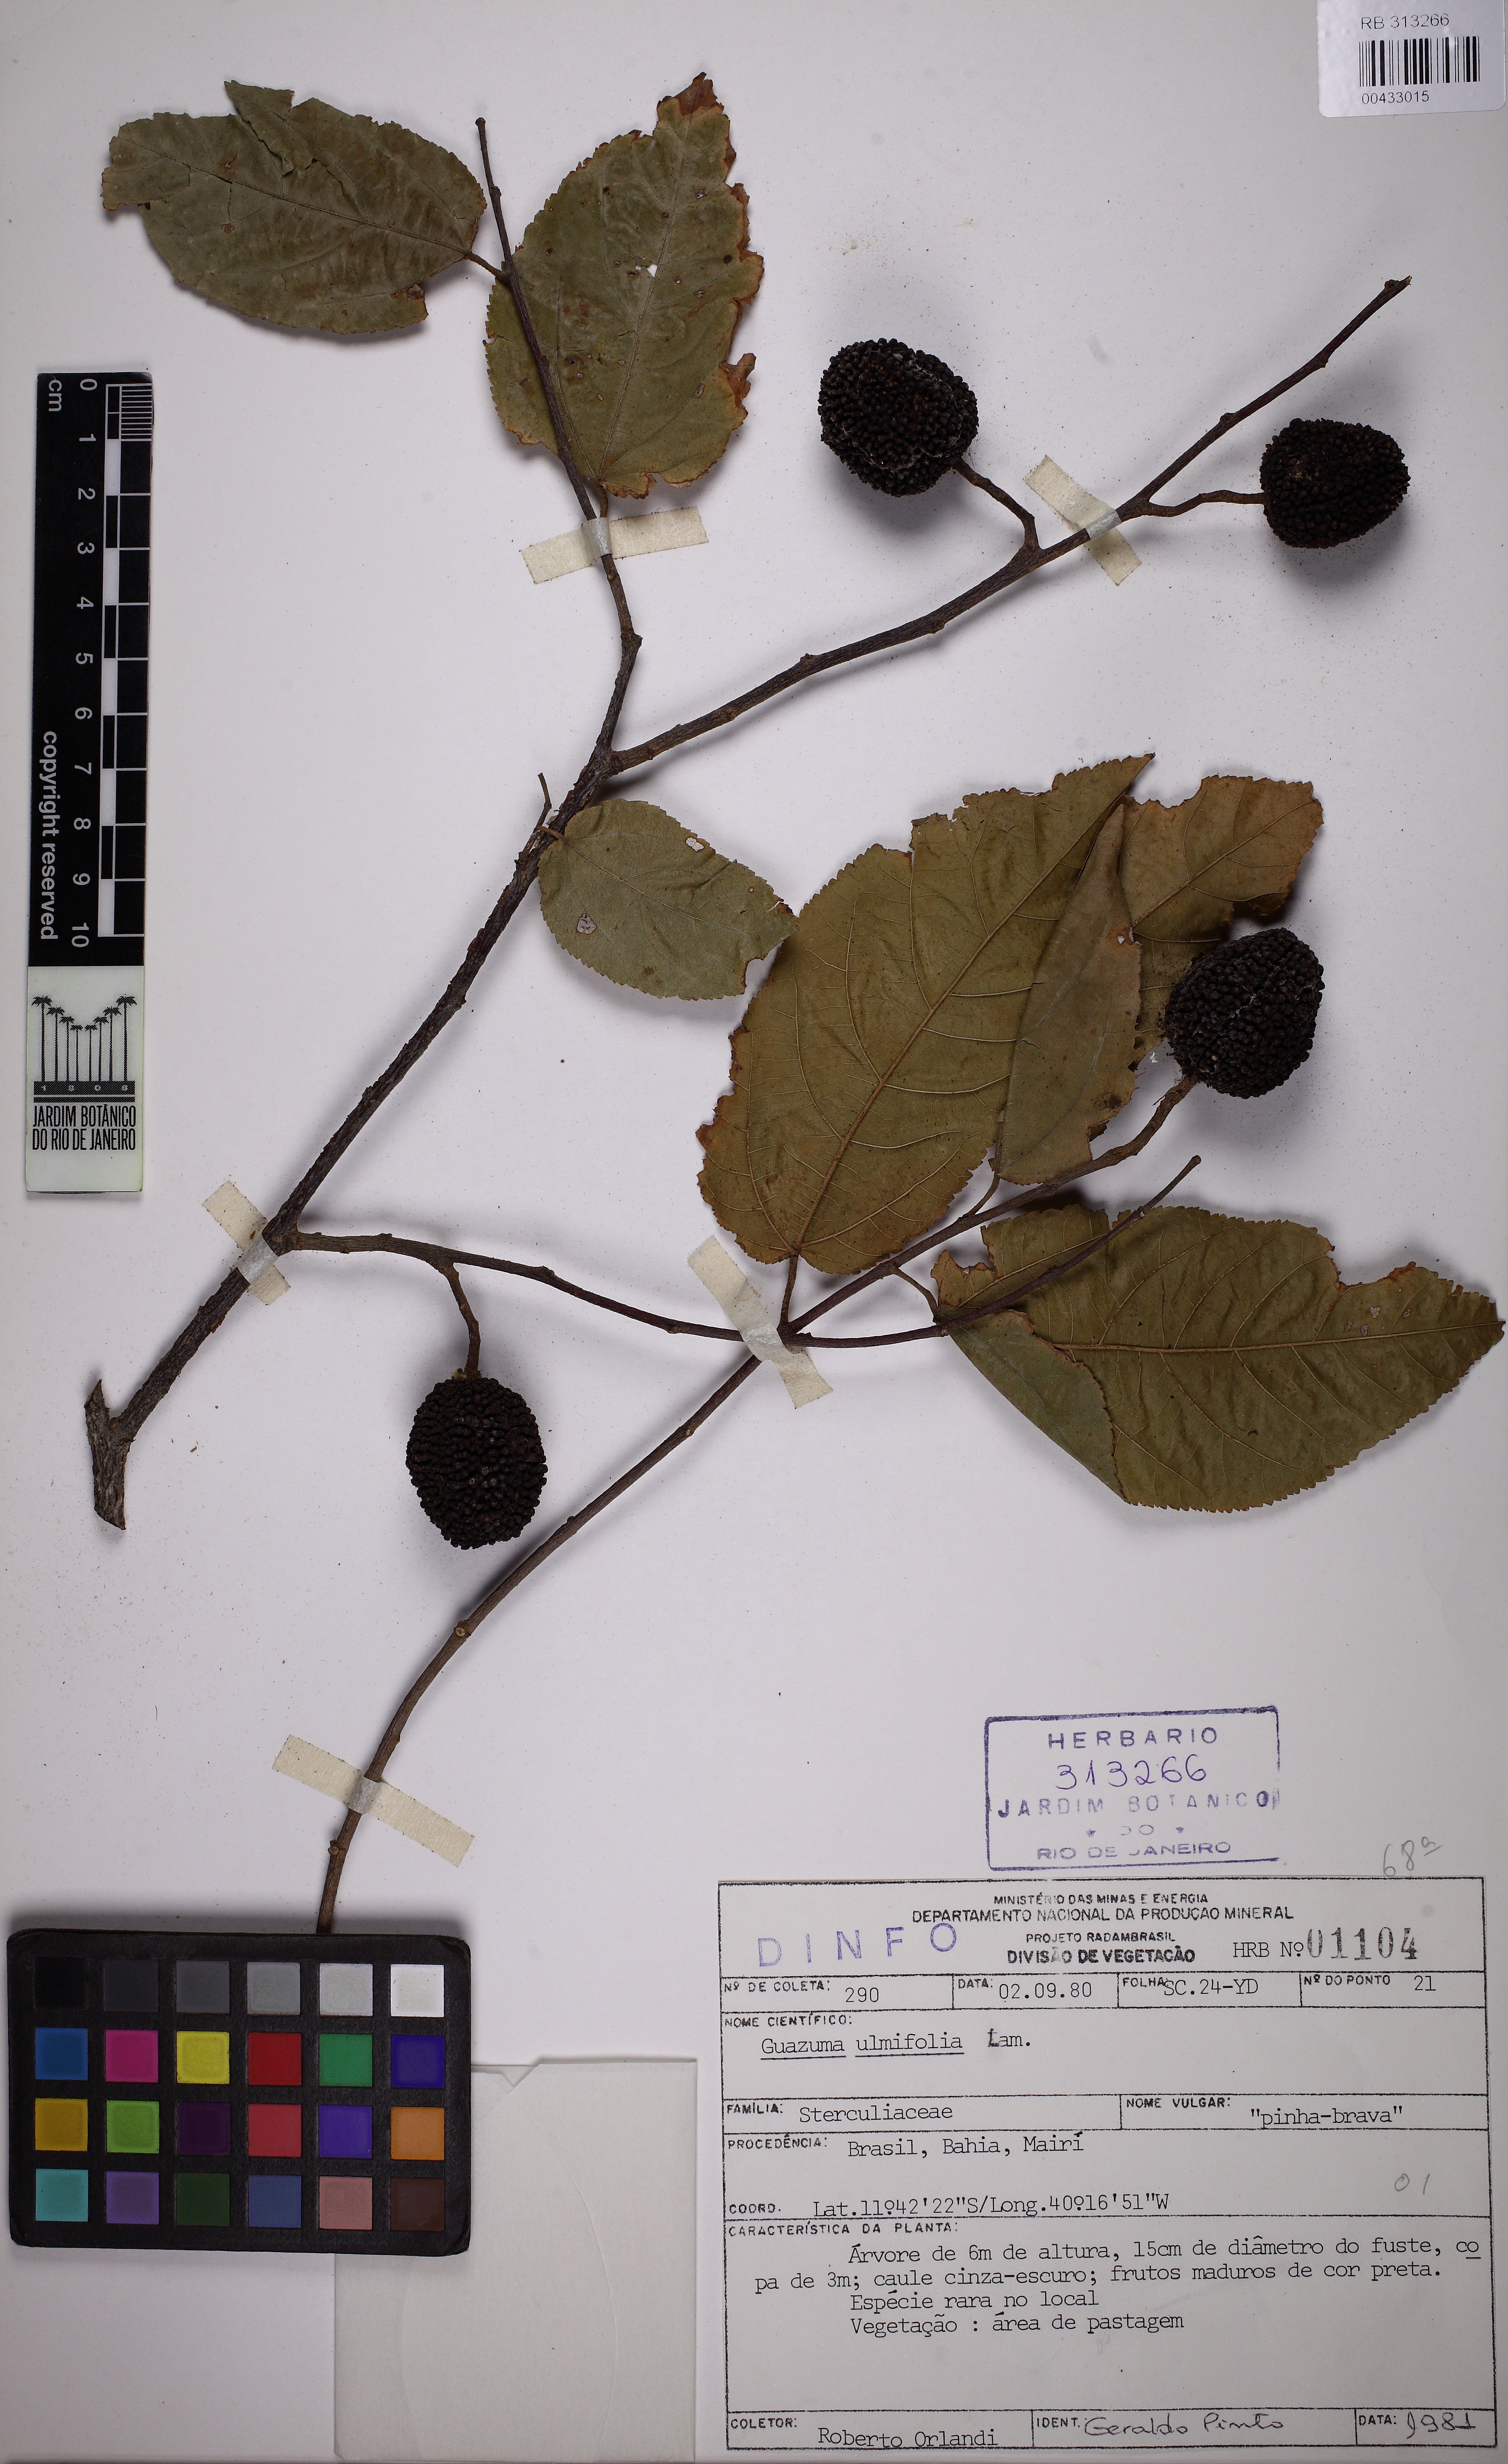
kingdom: Plantae
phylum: Tracheophyta
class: Magnoliopsida
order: Malvales
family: Malvaceae
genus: Guazuma
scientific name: Guazuma ulmifolia
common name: Bastard-cedar
